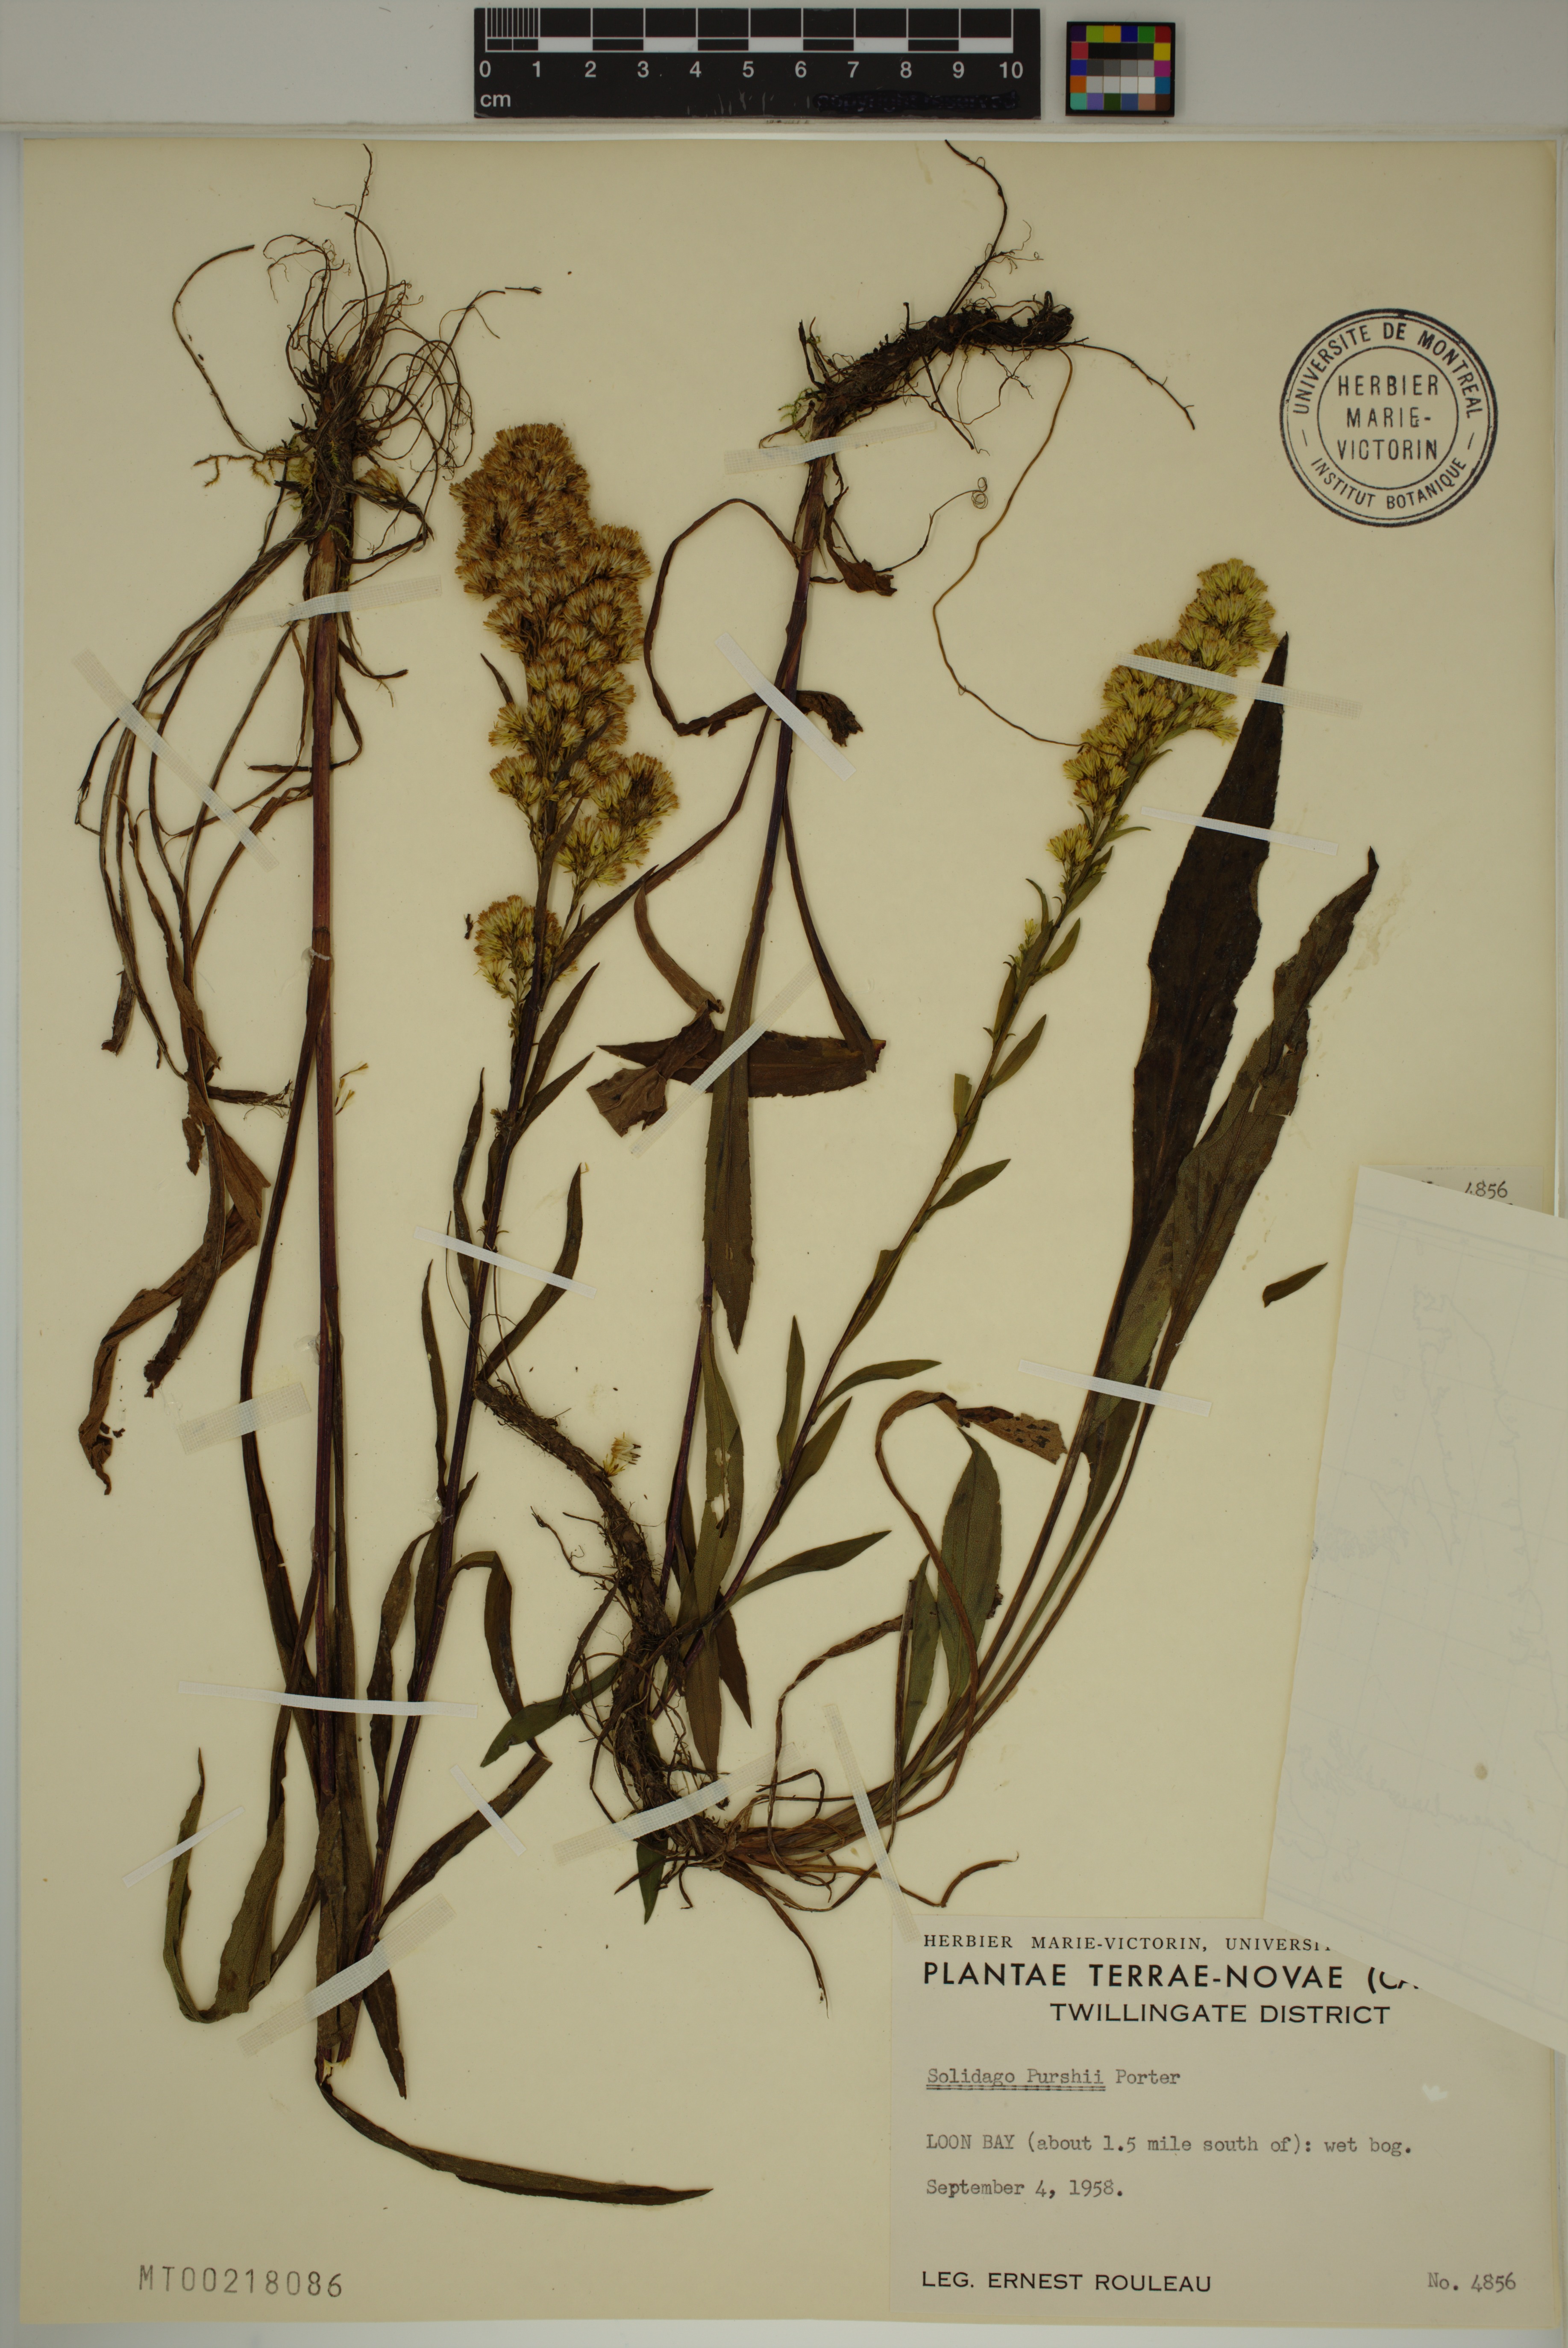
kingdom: Plantae
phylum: Tracheophyta
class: Magnoliopsida
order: Asterales
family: Asteraceae
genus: Solidago
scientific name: Solidago uliginosa
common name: Bog goldenrod
